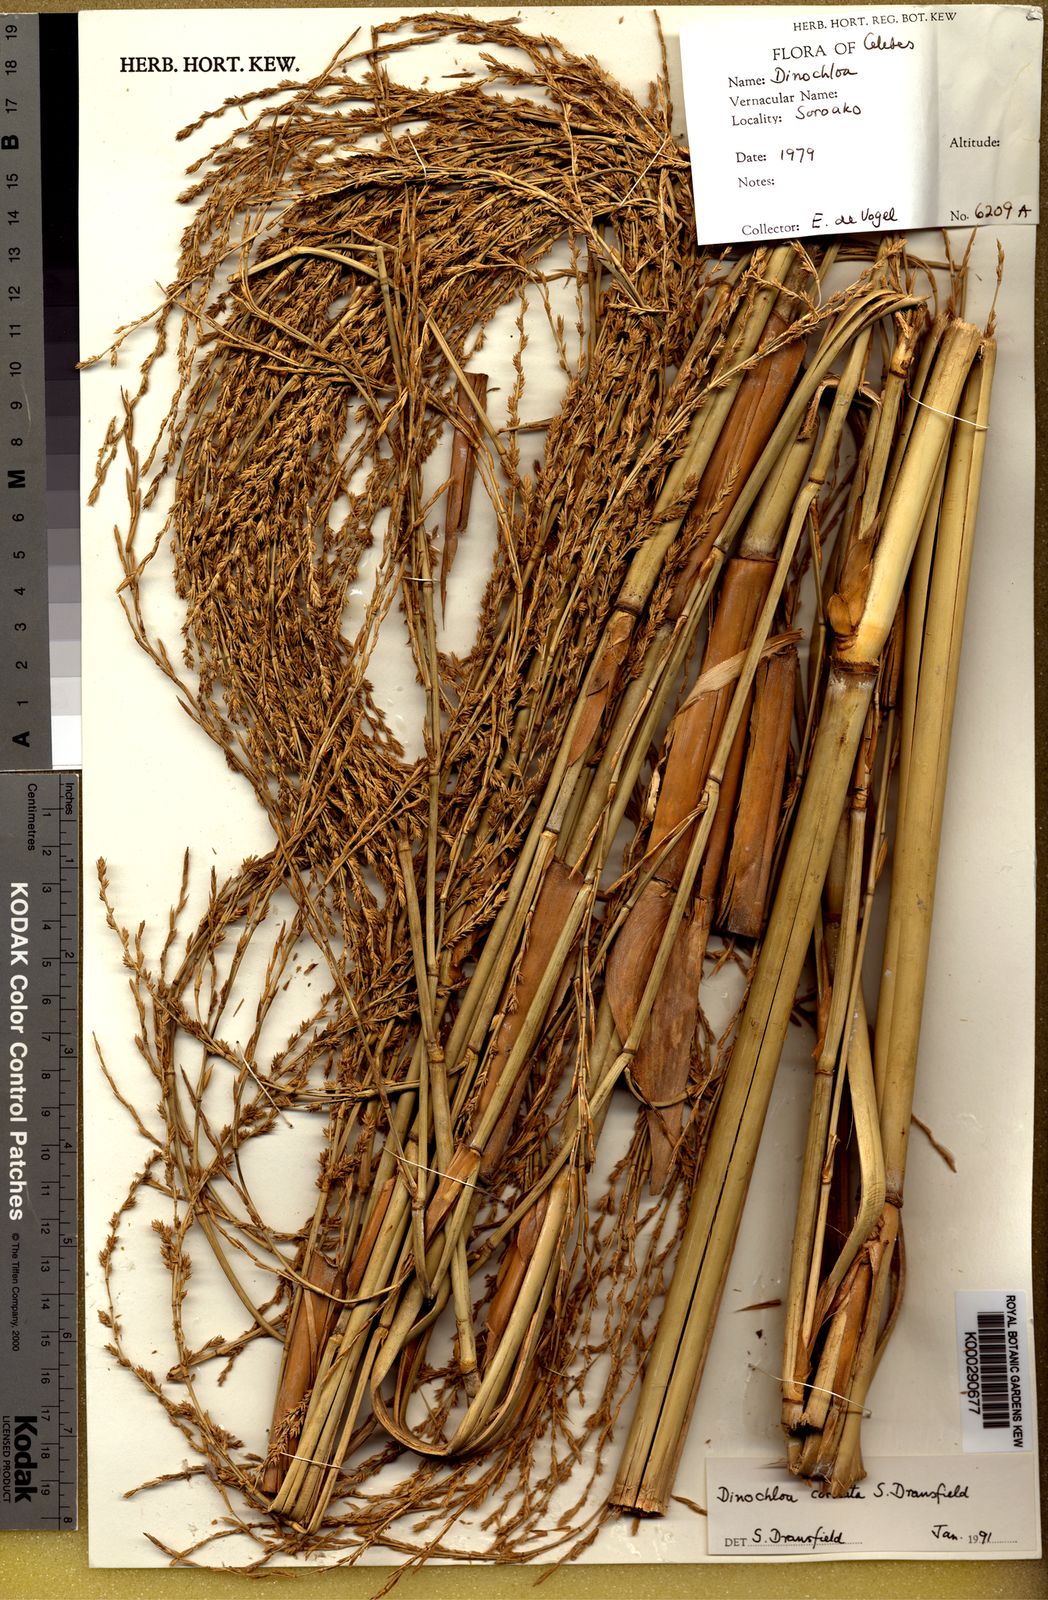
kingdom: Plantae
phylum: Tracheophyta
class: Liliopsida
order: Poales
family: Poaceae
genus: Dinochloa
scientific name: Dinochloa cordata
